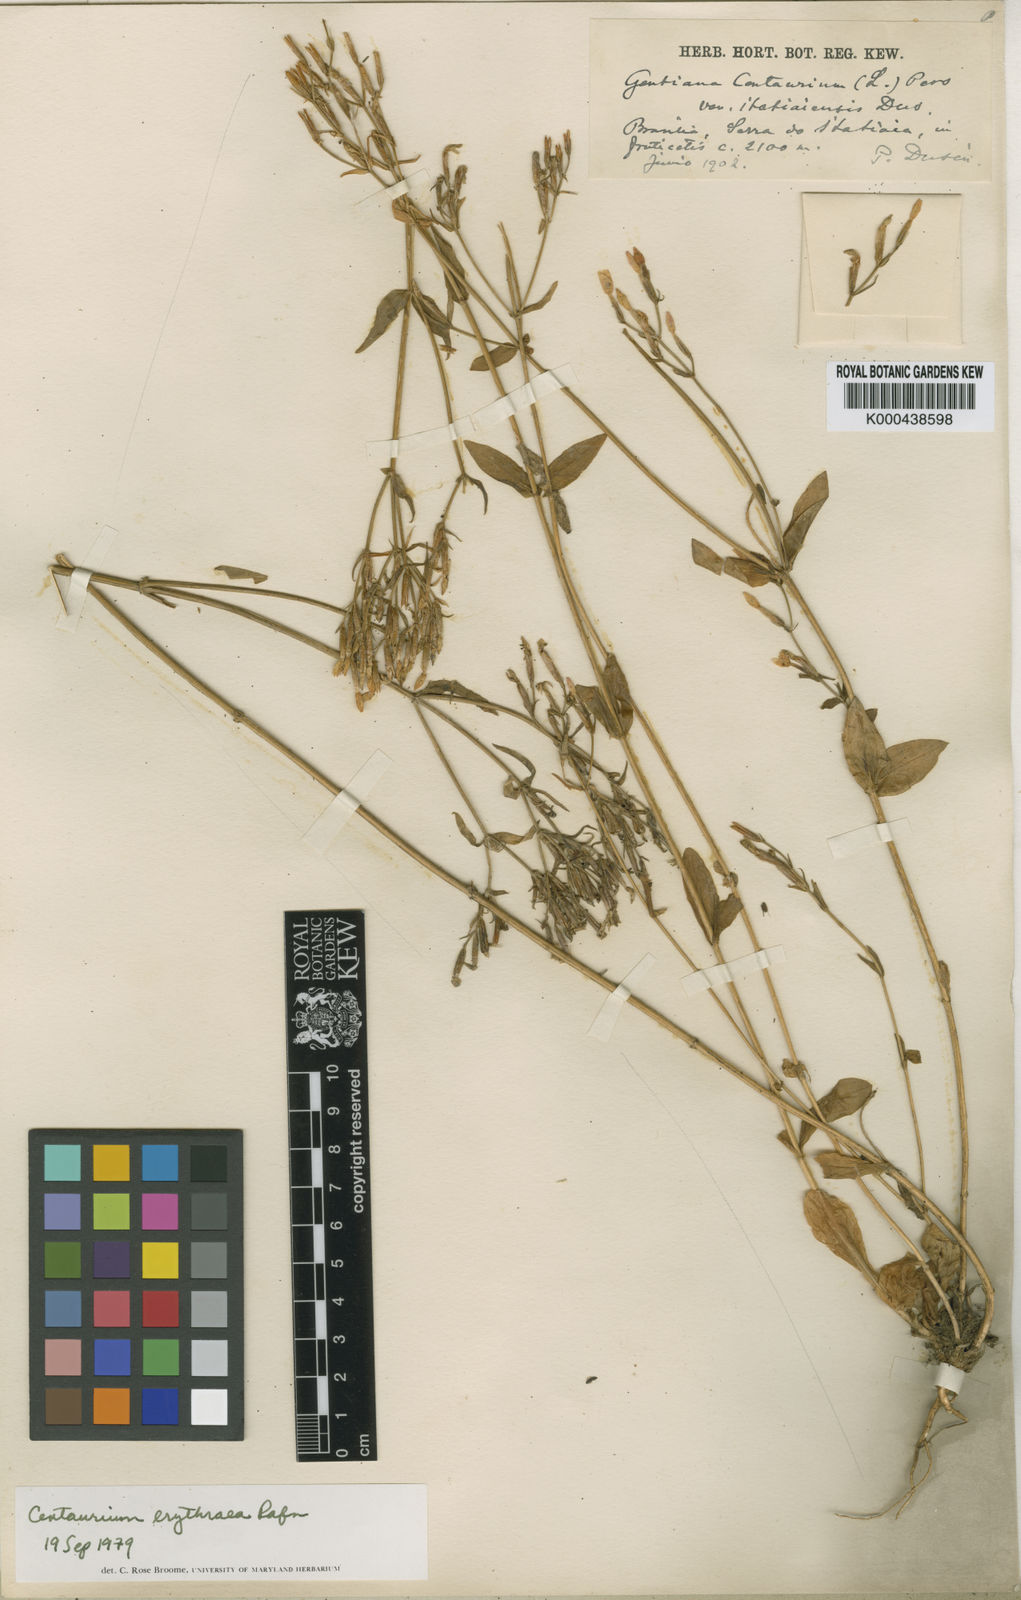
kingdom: Plantae
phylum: Tracheophyta
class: Magnoliopsida
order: Gentianales
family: Gentianaceae
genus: Centaurium
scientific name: Centaurium
